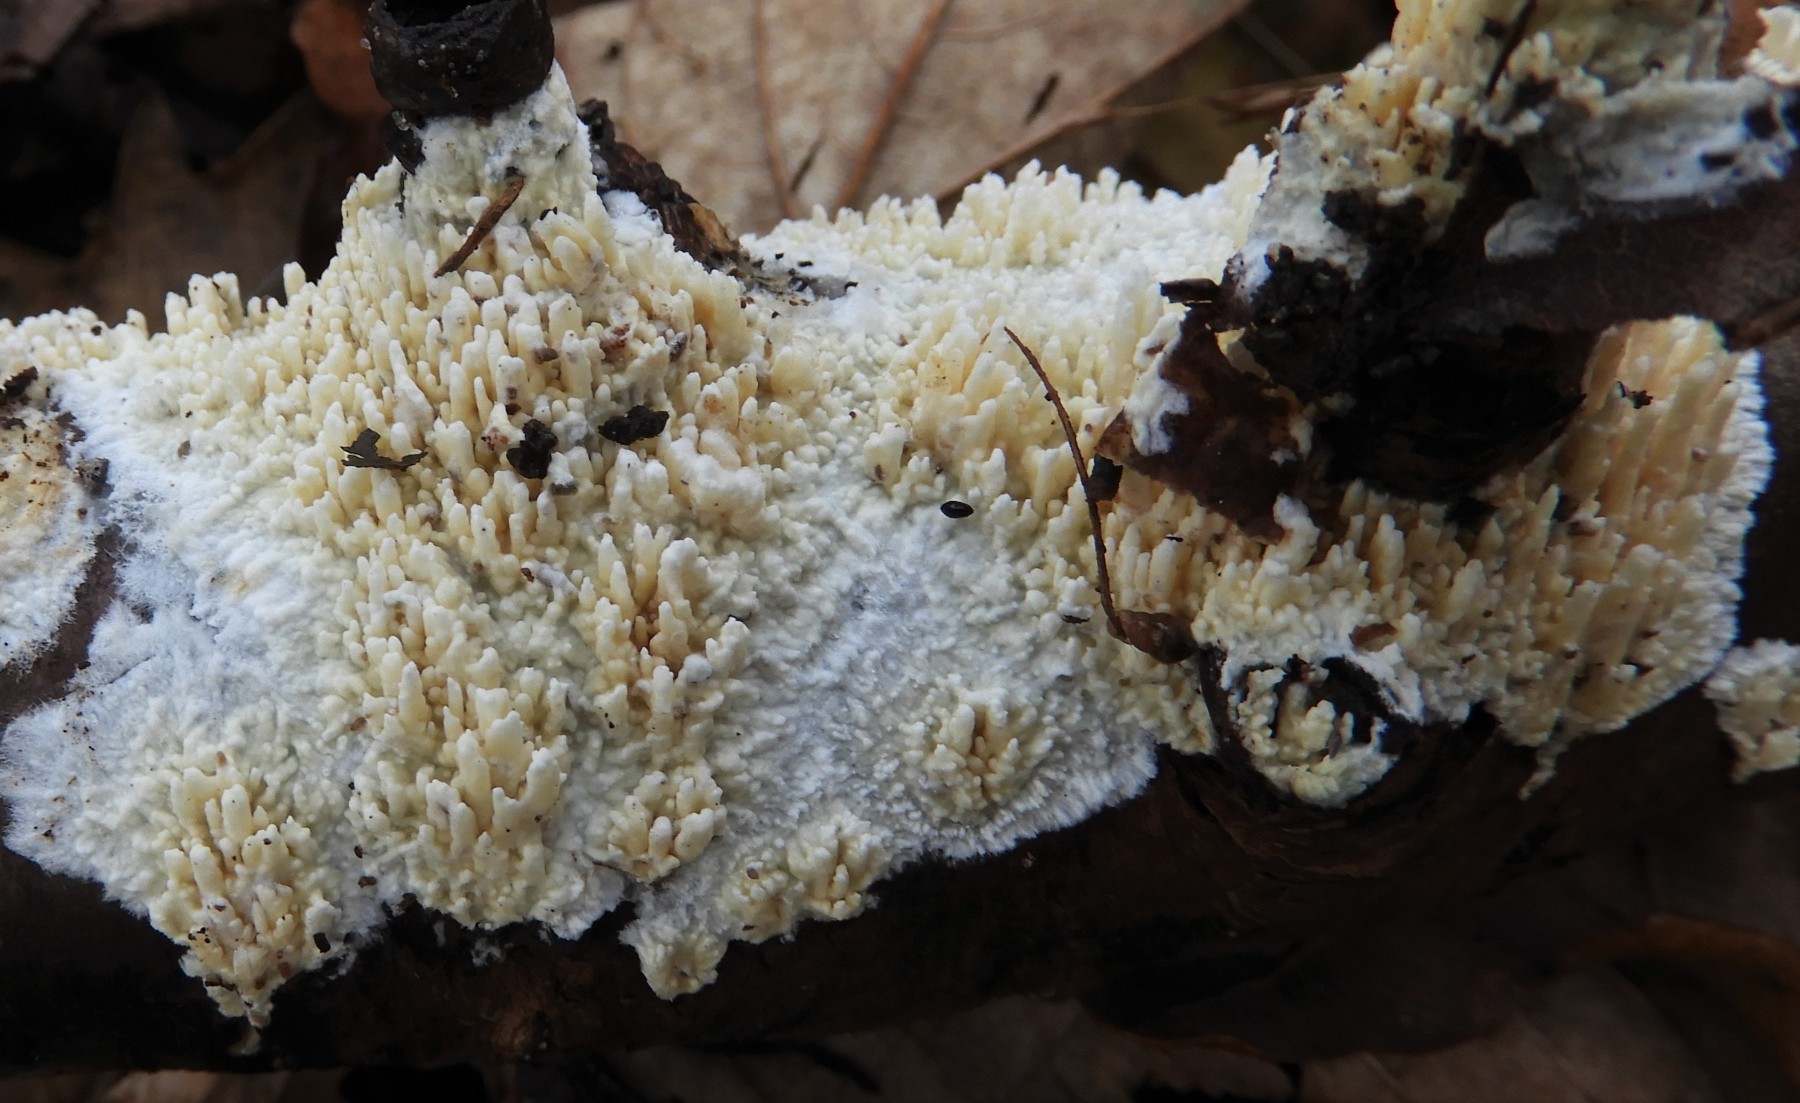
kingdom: Fungi
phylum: Basidiomycota
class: Agaricomycetes
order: Hymenochaetales
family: Schizoporaceae
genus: Xylodon
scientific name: Xylodon radula
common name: grovtandet kalkskind
